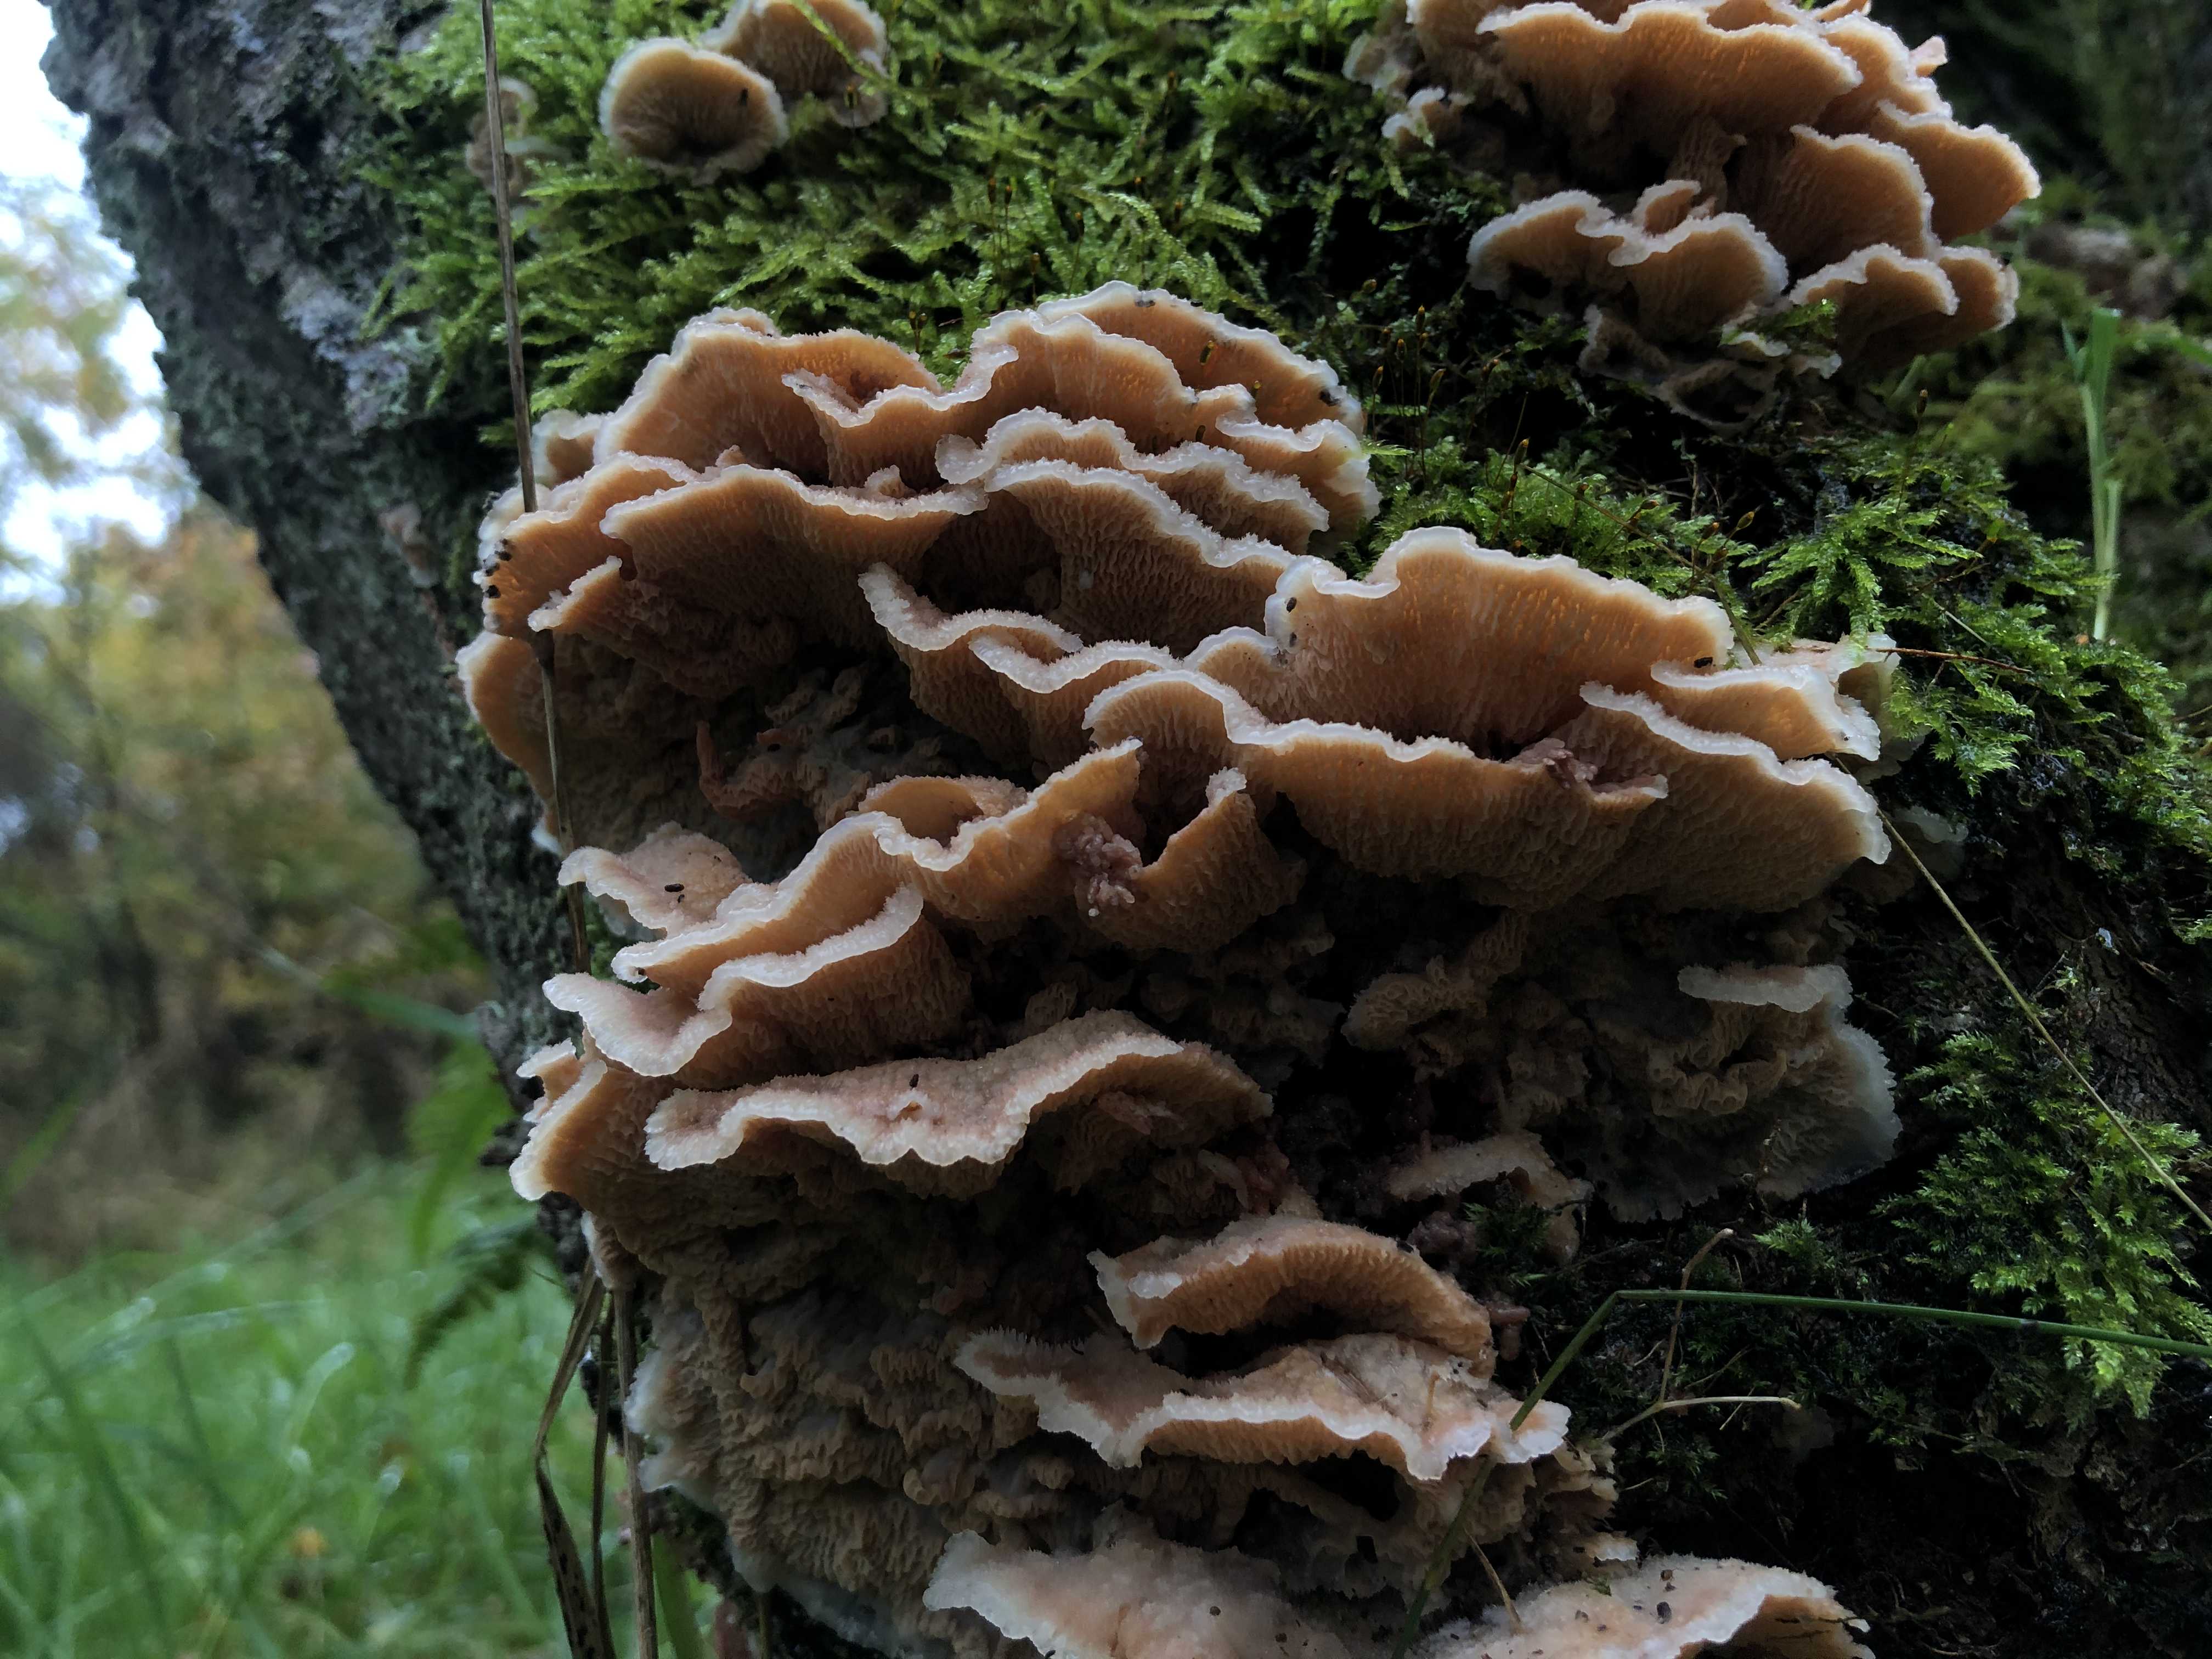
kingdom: Fungi
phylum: Basidiomycota
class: Agaricomycetes
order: Polyporales
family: Meruliaceae
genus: Phlebia
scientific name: Phlebia tremellosa
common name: bævrende åresvamp
